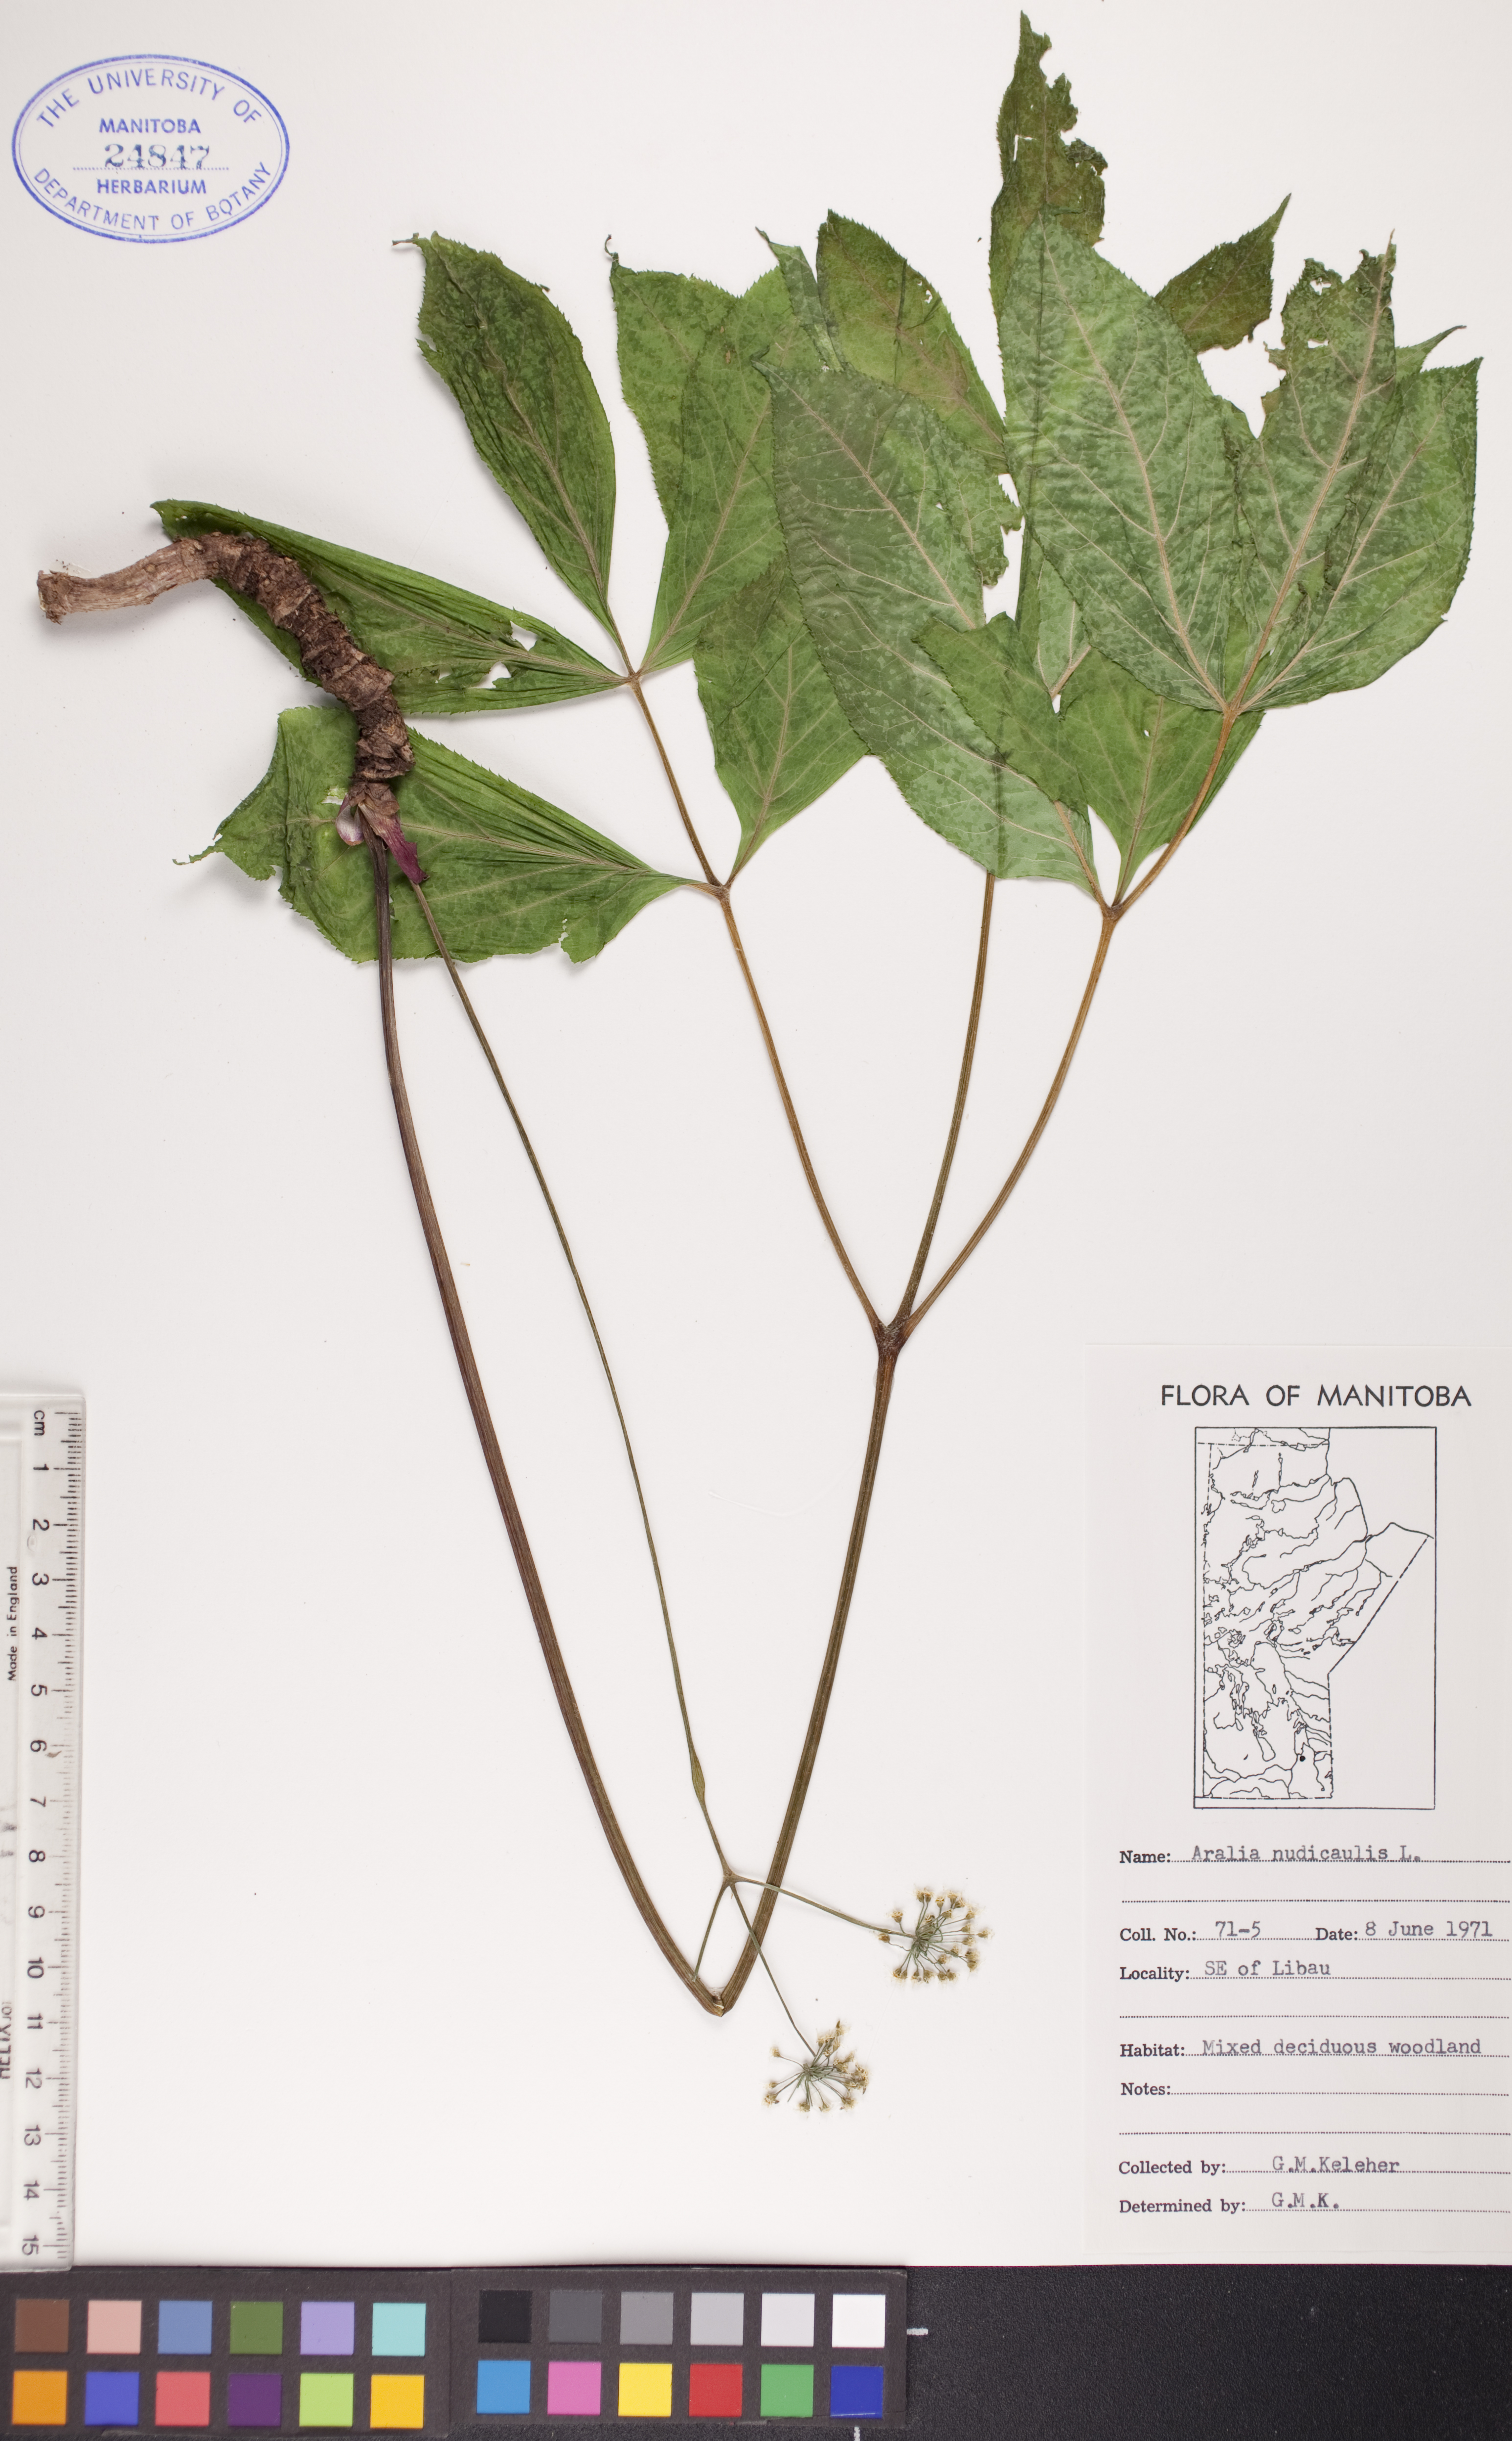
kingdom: Plantae
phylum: Tracheophyta
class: Magnoliopsida
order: Apiales
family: Araliaceae
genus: Aralia
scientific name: Aralia nudicaulis
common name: Wild sarsaparilla
